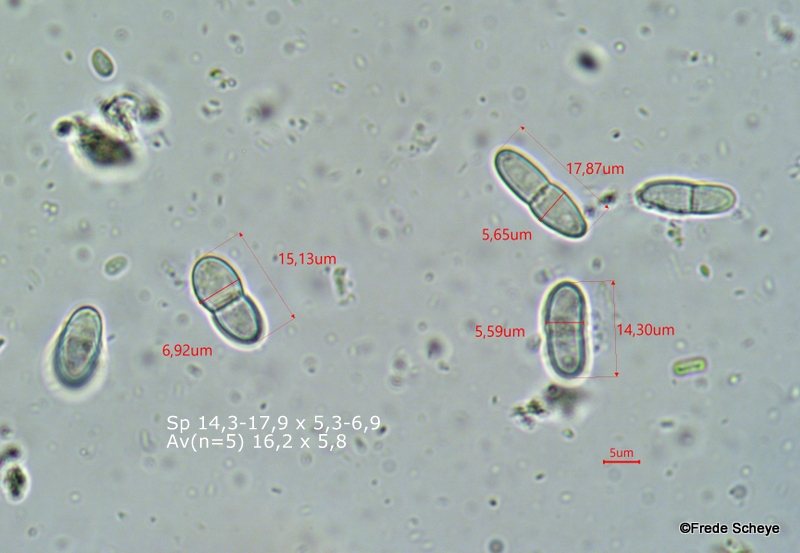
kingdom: Fungi
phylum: Ascomycota
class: Sordariomycetes
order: Hypocreales
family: Nectriaceae
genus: Nectria
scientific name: Nectria cinnabarina
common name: almindelig cinnobersvamp
